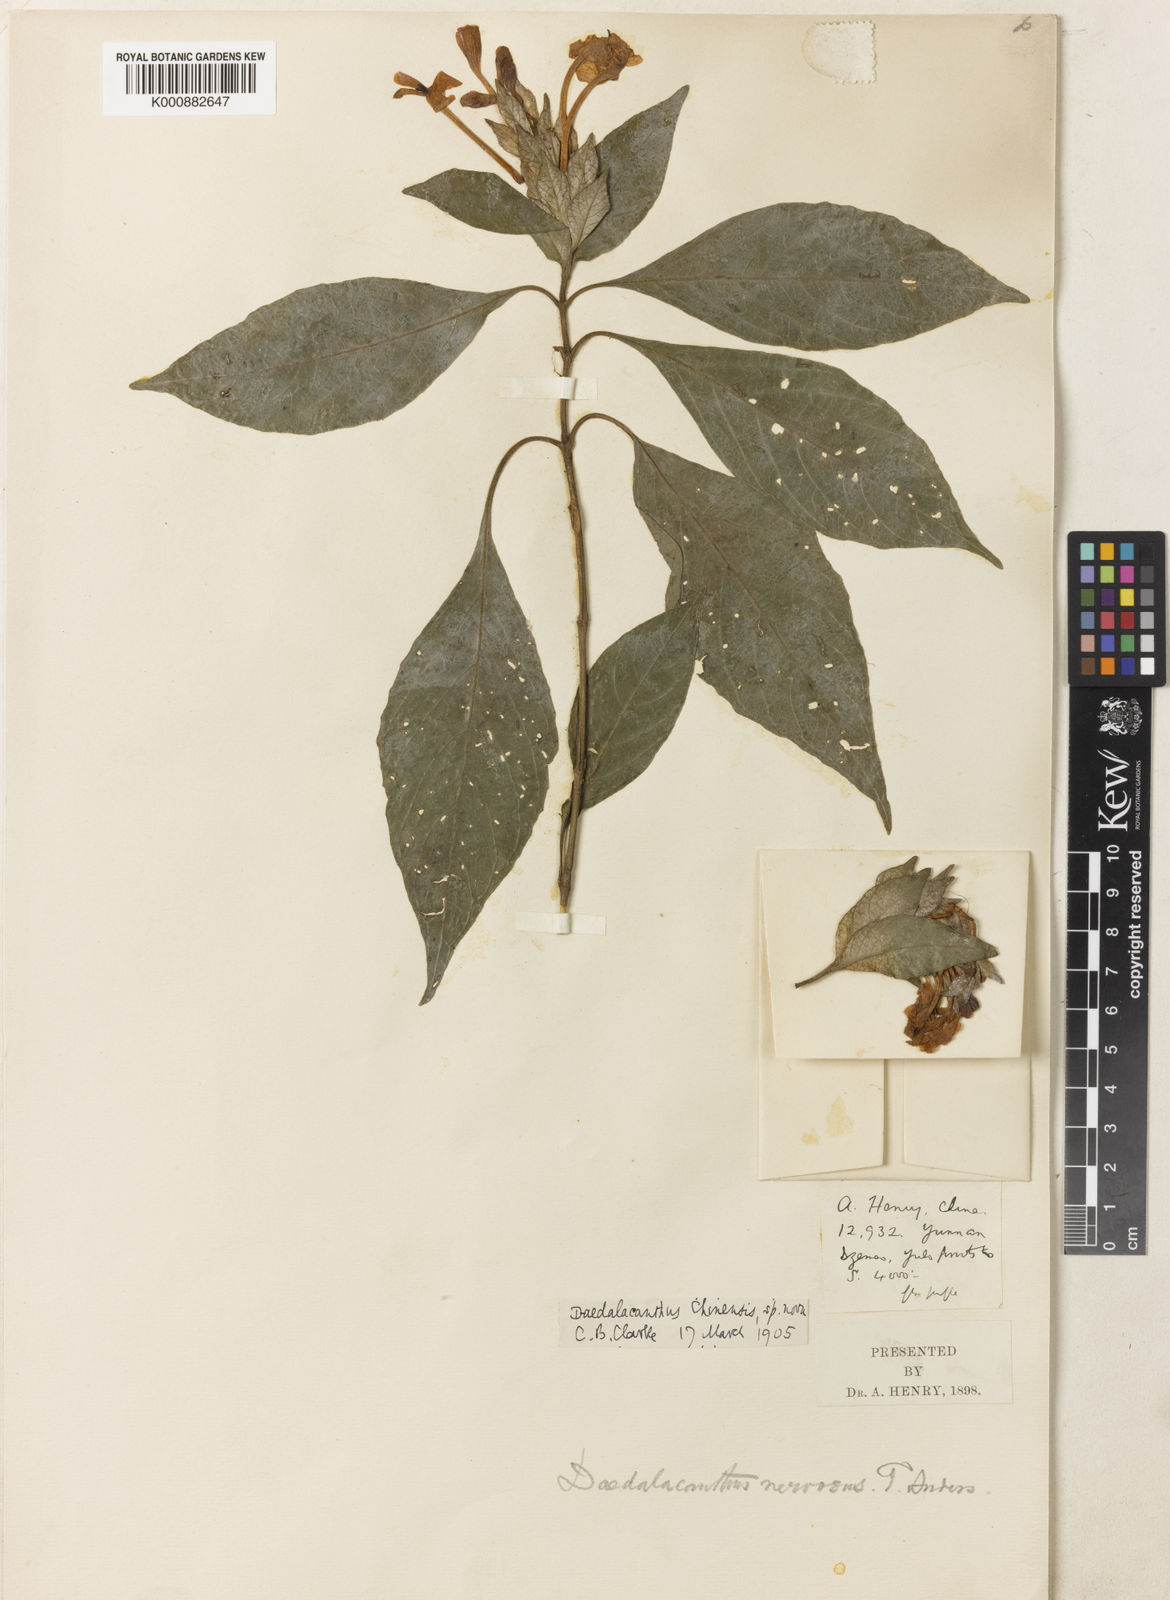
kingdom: Plantae
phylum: Tracheophyta
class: Magnoliopsida
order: Lamiales
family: Acanthaceae
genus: Eranthemum
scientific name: Eranthemum ciliatum
